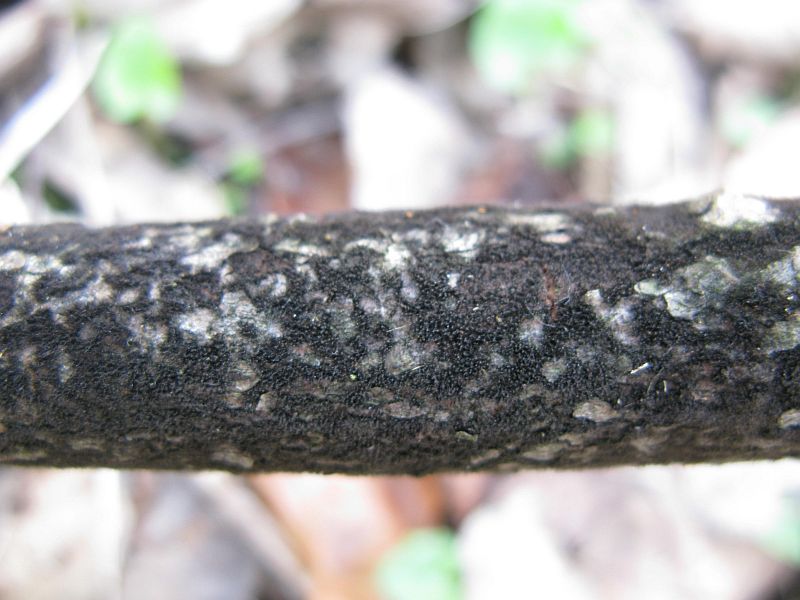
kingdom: Fungi
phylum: Ascomycota
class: Sordariomycetes
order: Hypocreales
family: Bionectriaceae
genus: Xanthonectria
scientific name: Xanthonectria pseudopeziza
